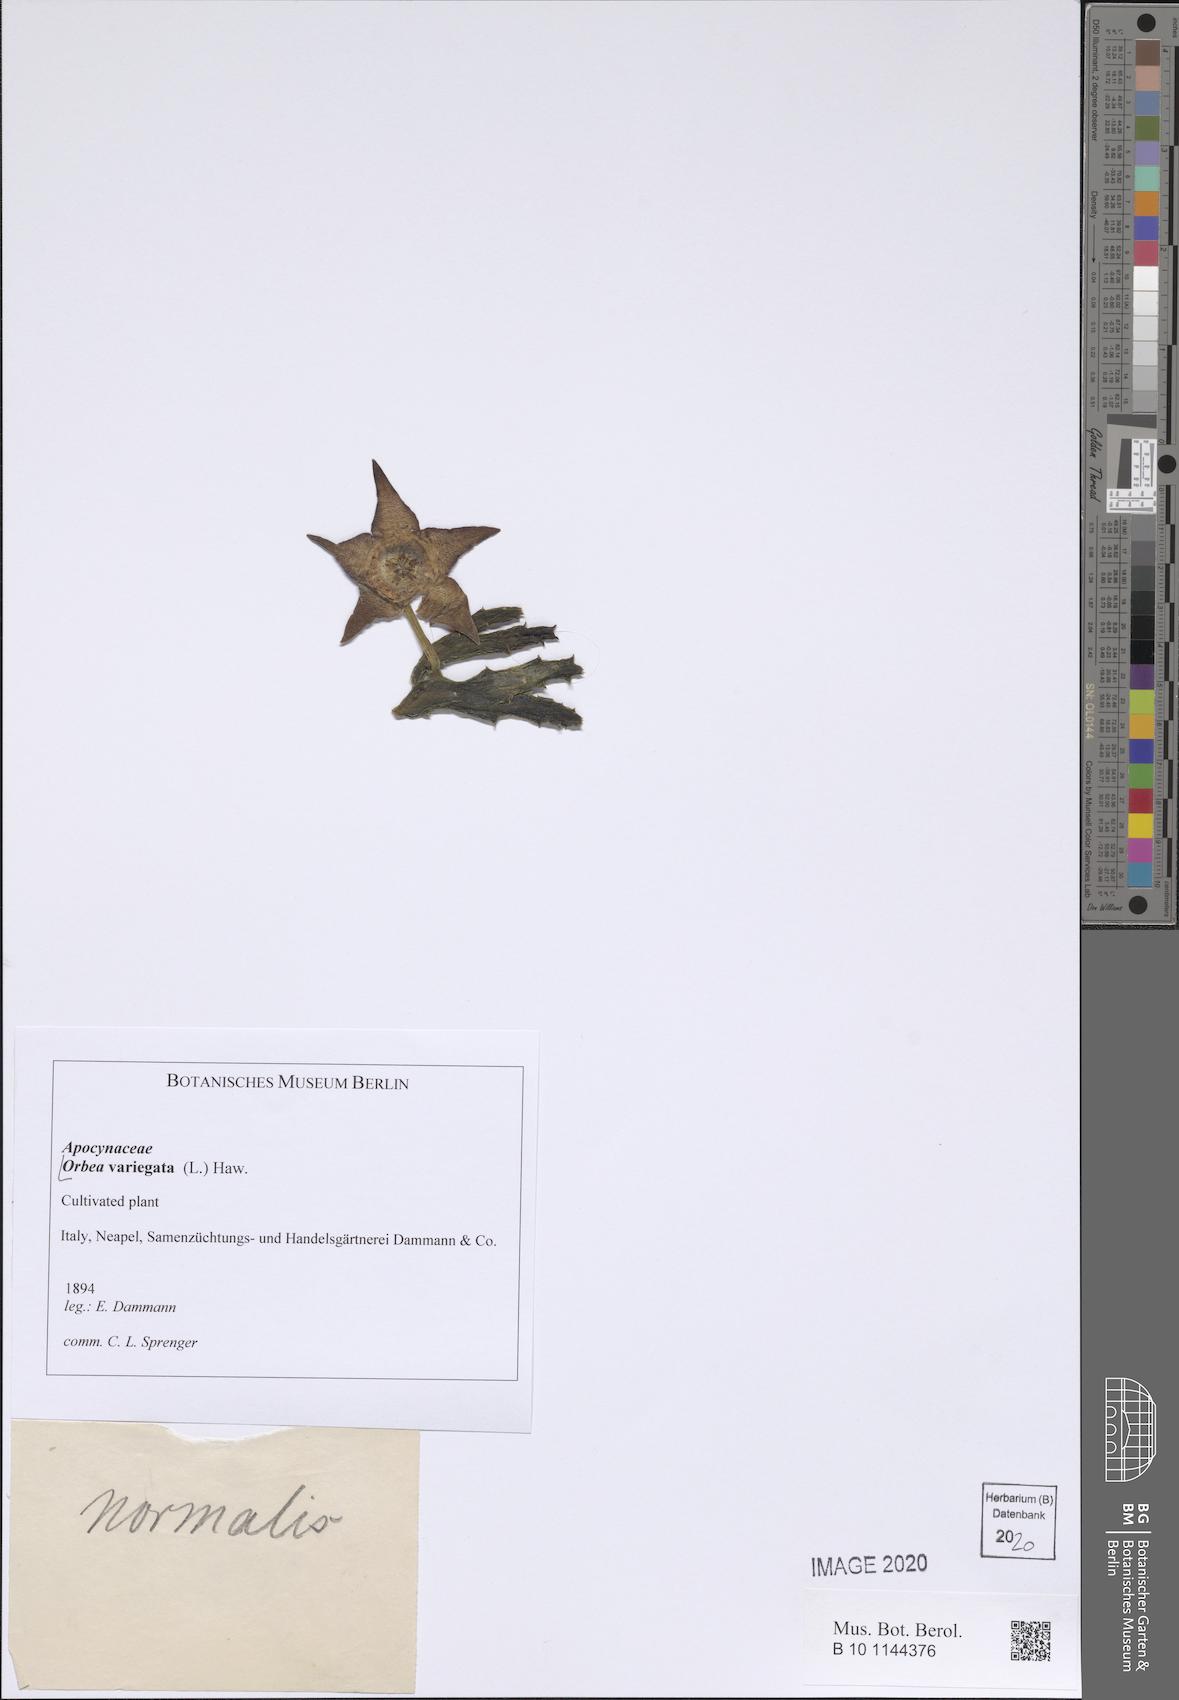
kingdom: Plantae
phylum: Tracheophyta
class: Magnoliopsida
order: Gentianales
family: Apocynaceae
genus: Ceropegia
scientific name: Ceropegia mixta
